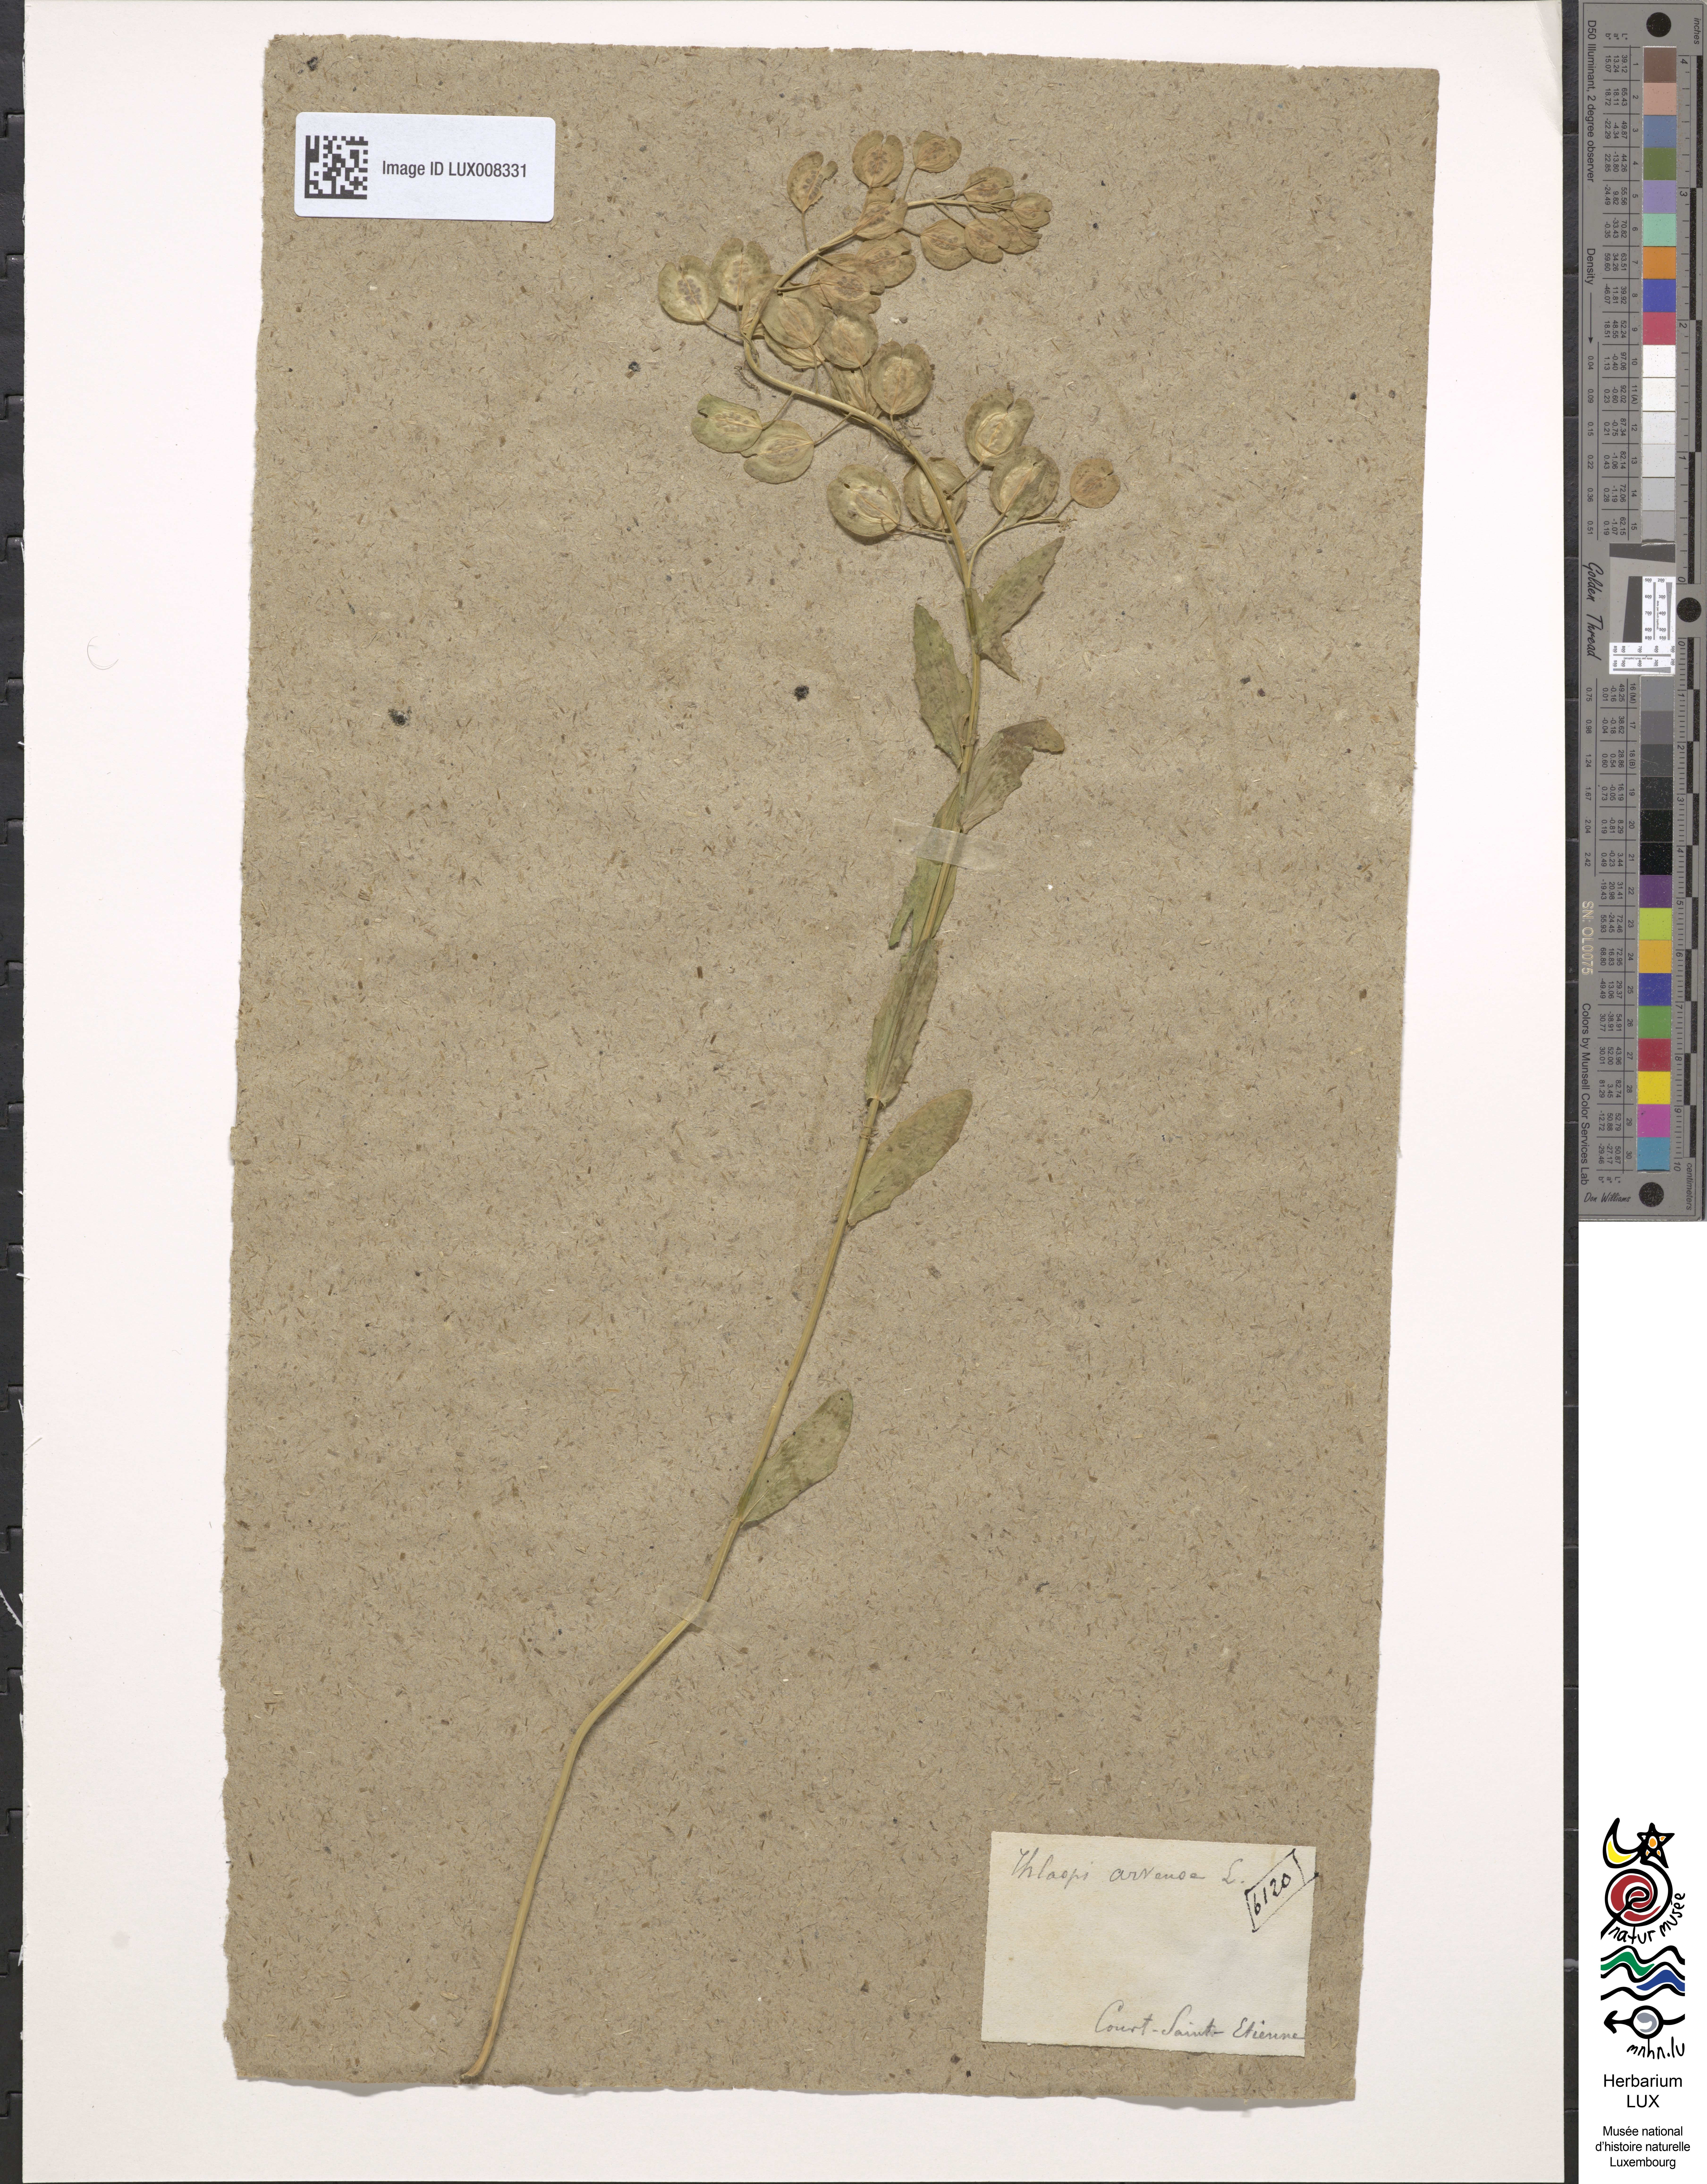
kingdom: Plantae
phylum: Tracheophyta
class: Magnoliopsida
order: Brassicales
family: Brassicaceae
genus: Thlaspi
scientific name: Thlaspi arvense
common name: Field pennycress
